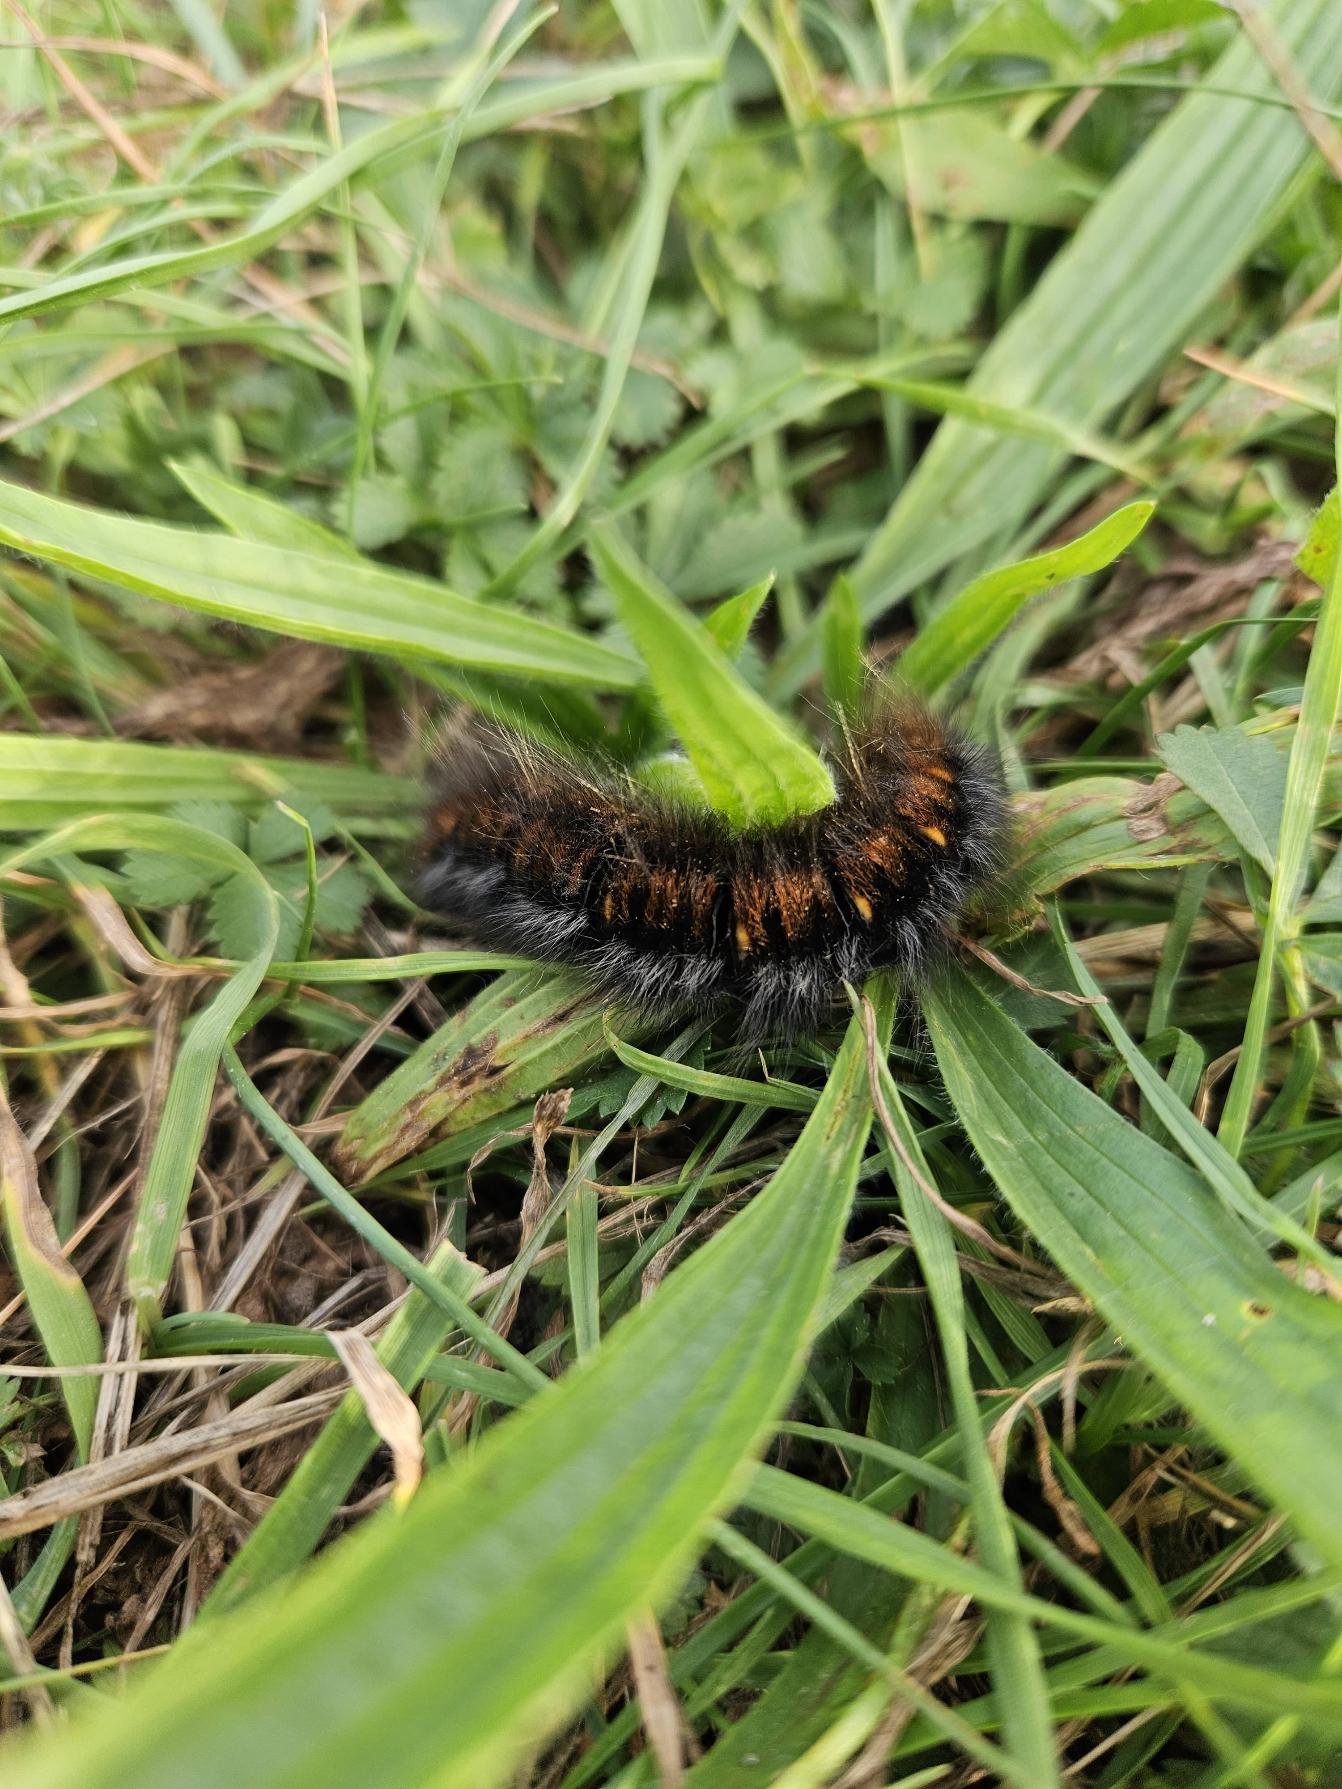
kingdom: Animalia
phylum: Arthropoda
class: Insecta
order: Lepidoptera
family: Lasiocampidae
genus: Macrothylacia
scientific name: Macrothylacia rubi
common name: Brombærspinder
